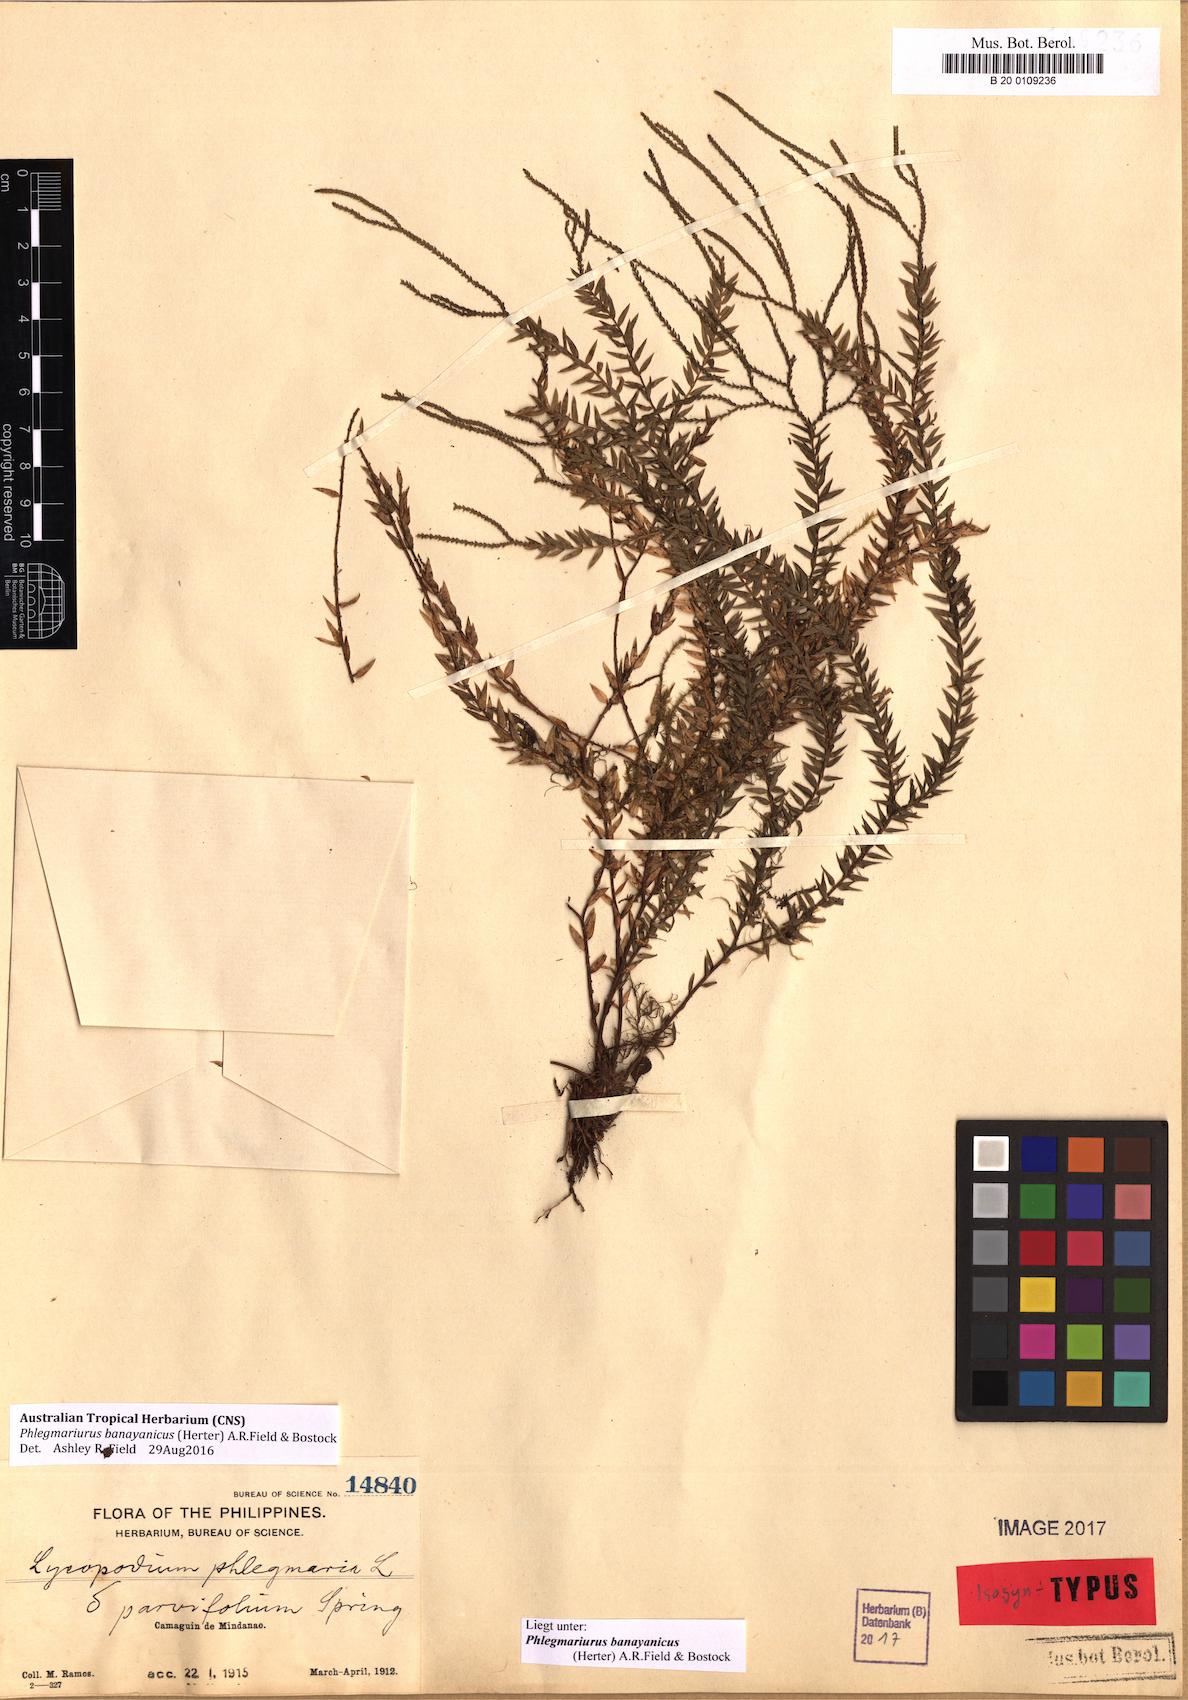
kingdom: Plantae
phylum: Tracheophyta
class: Lycopodiopsida
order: Lycopodiales
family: Lycopodiaceae
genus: Phlegmariurus
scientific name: Phlegmariurus banayanicus
